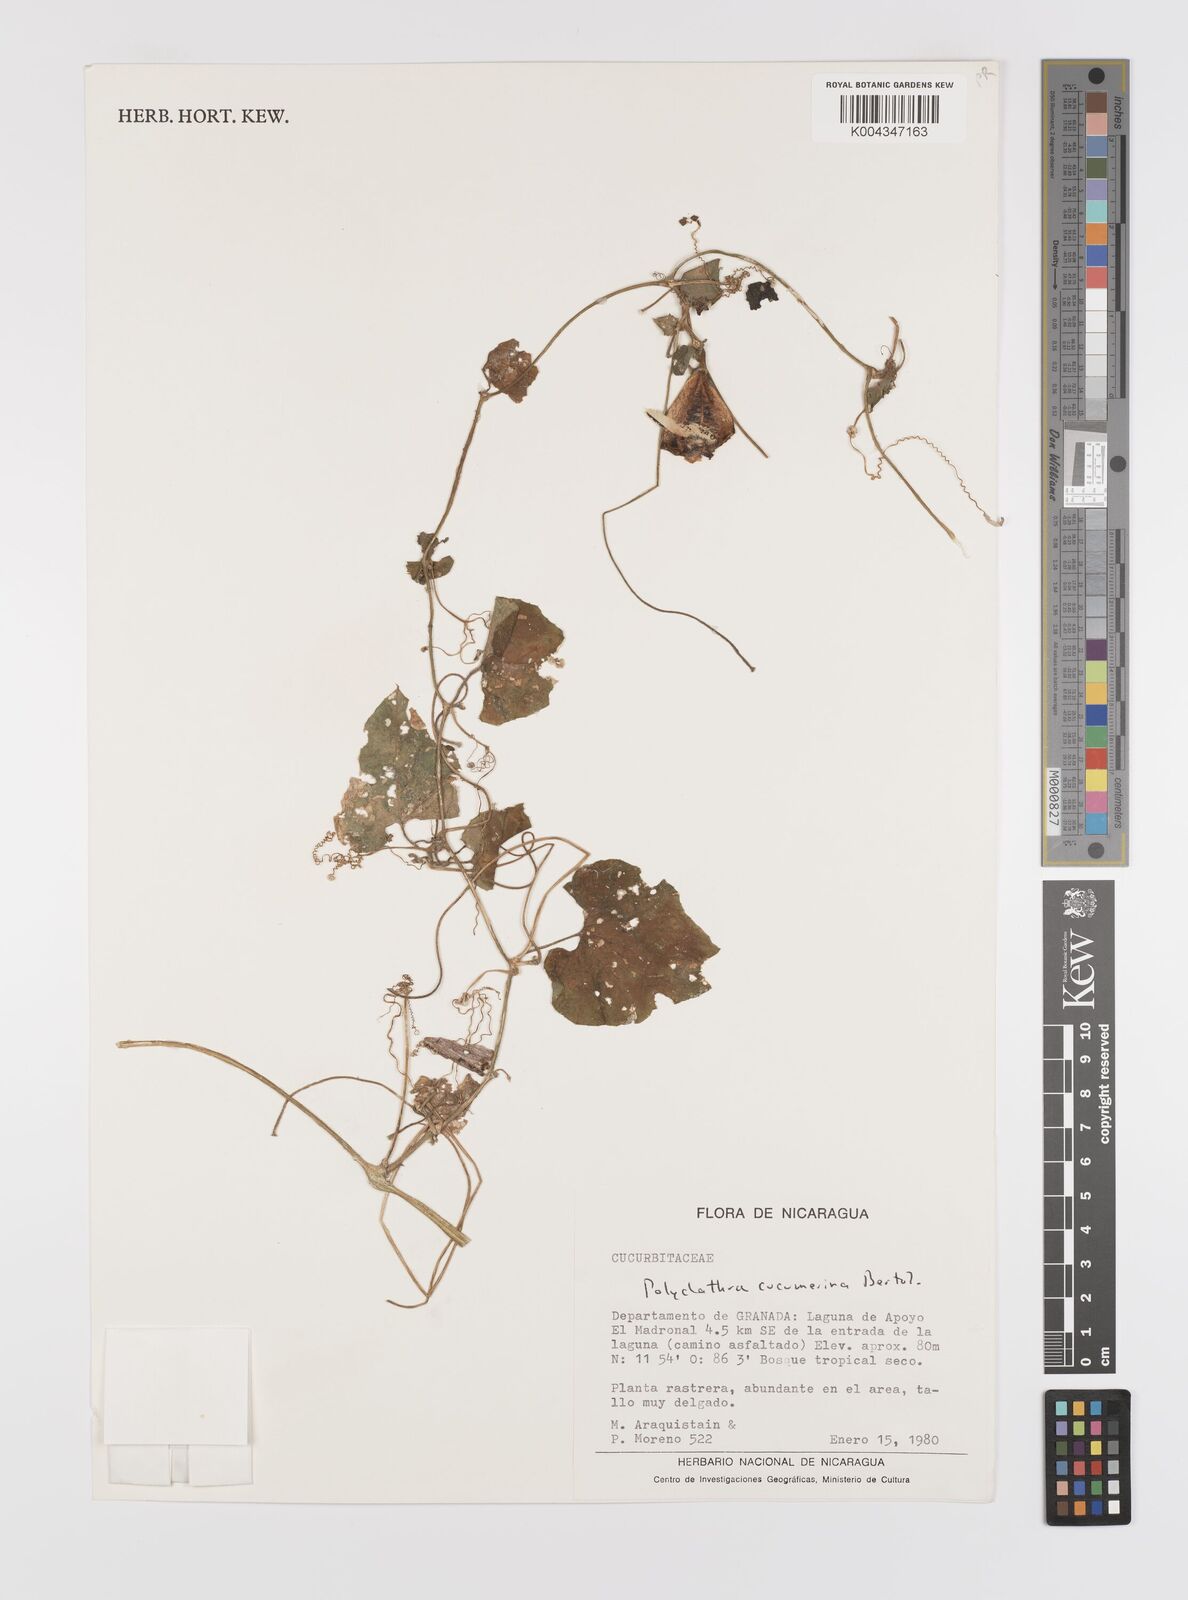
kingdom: Plantae
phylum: Tracheophyta
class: Magnoliopsida
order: Cucurbitales
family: Cucurbitaceae
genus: Polyclathra
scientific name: Polyclathra cucumerina
